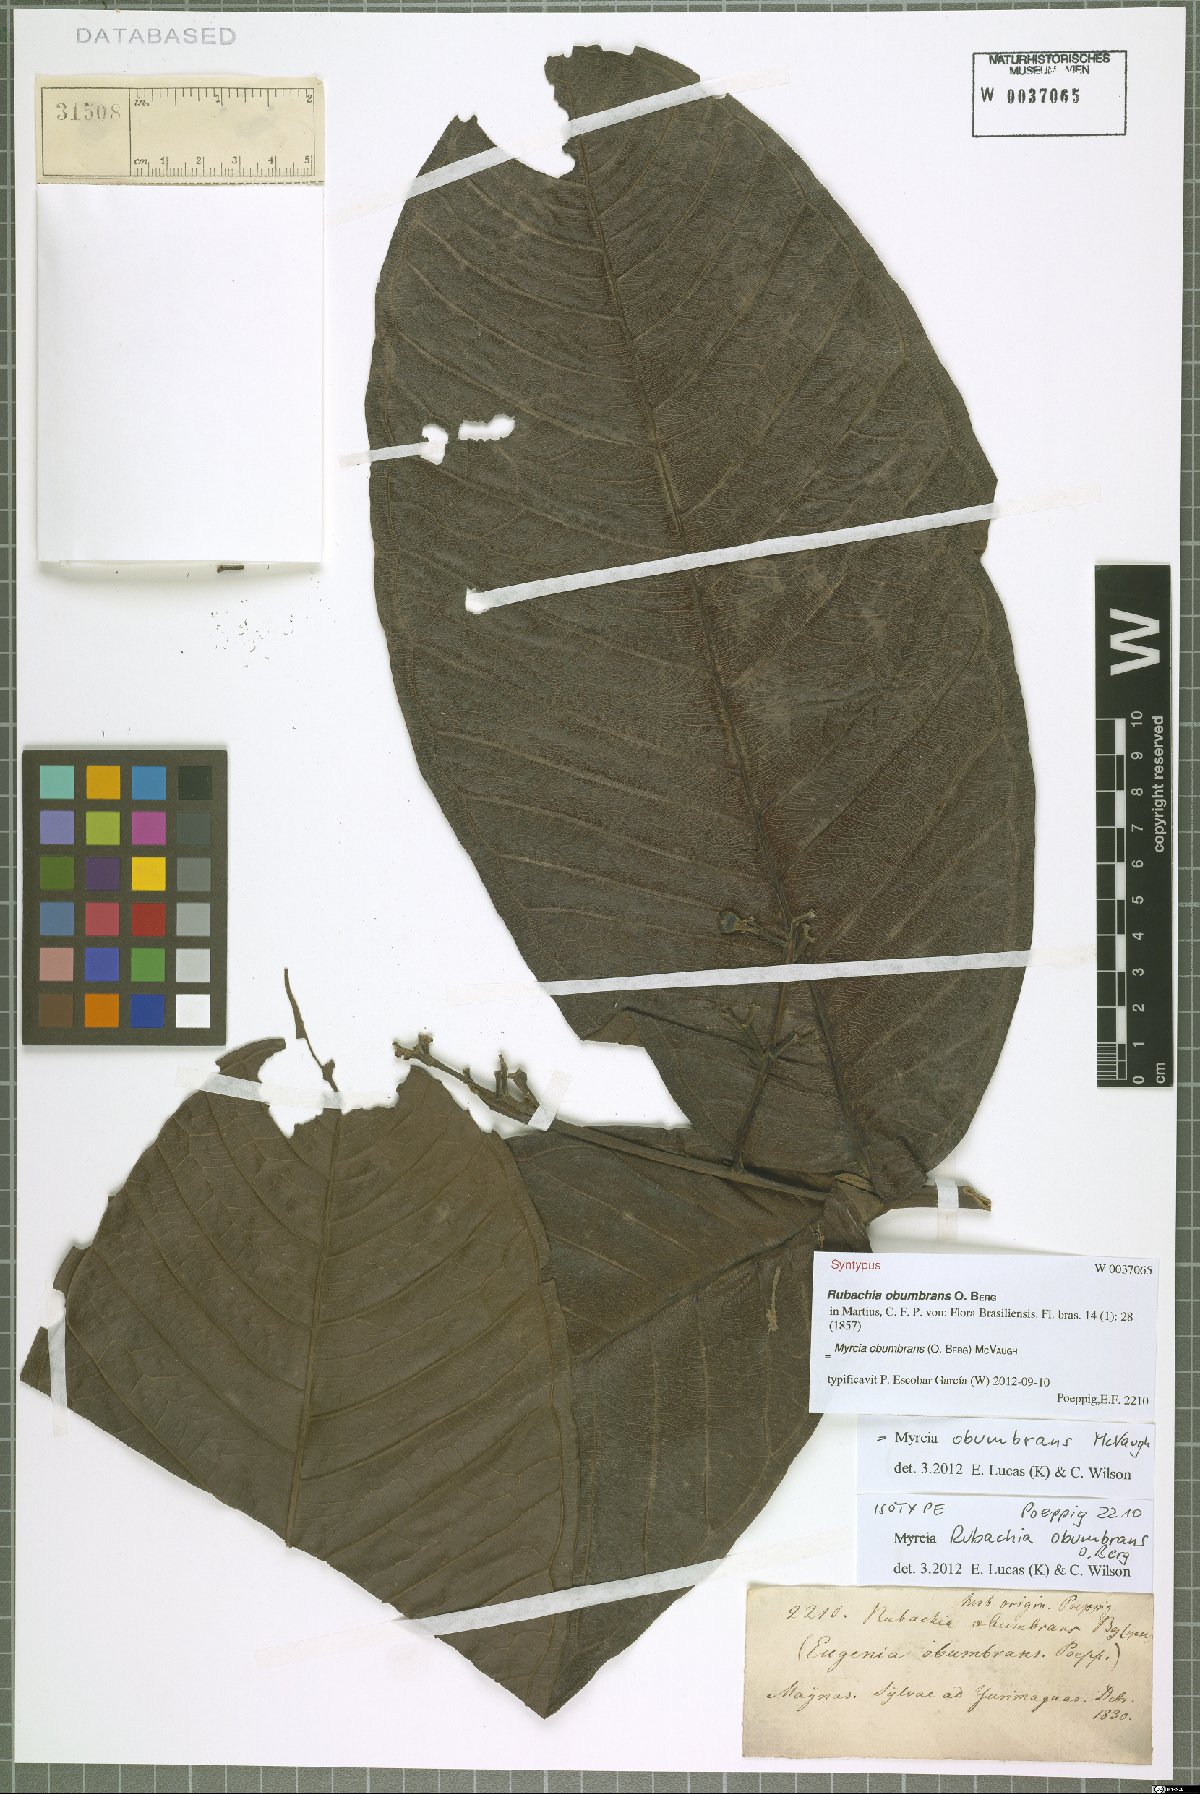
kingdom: Plantae
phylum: Tracheophyta
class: Magnoliopsida
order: Myrtales
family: Myrtaceae
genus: Myrcia
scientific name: Myrcia obumbrans
